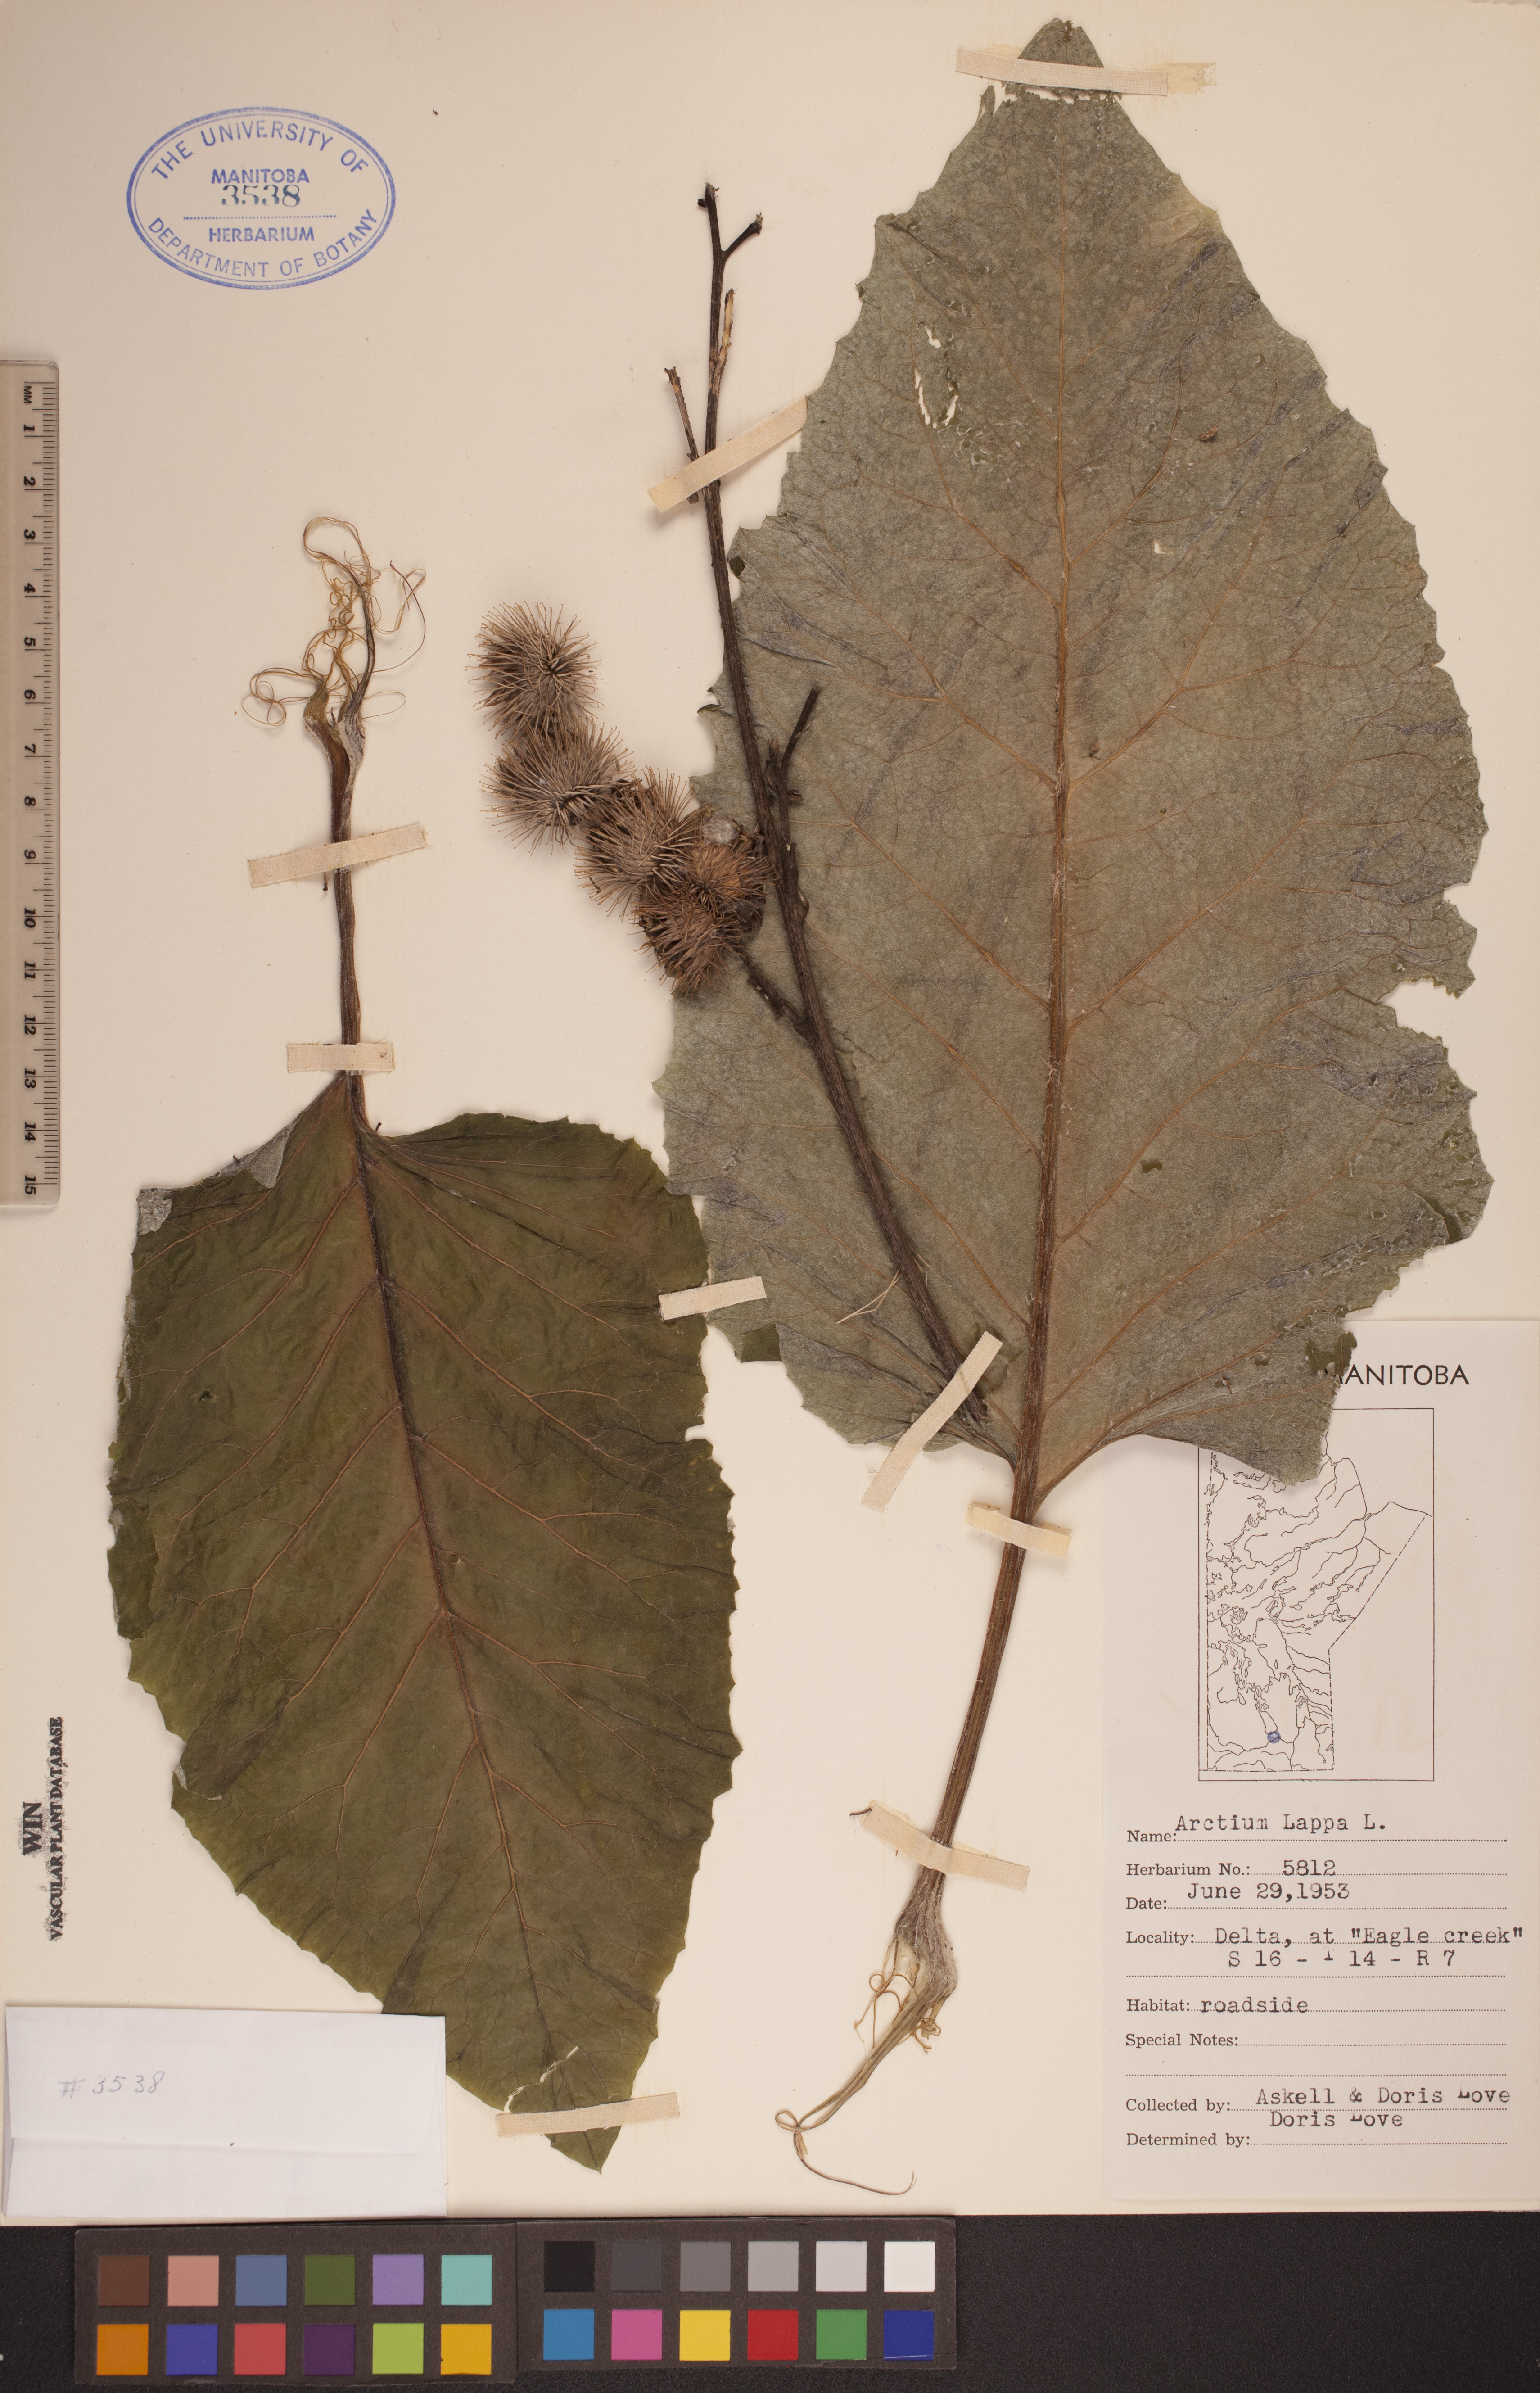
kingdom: Plantae
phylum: Tracheophyta
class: Magnoliopsida
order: Asterales
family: Asteraceae
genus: Arctium
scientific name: Arctium lappa
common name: Greater burdock
